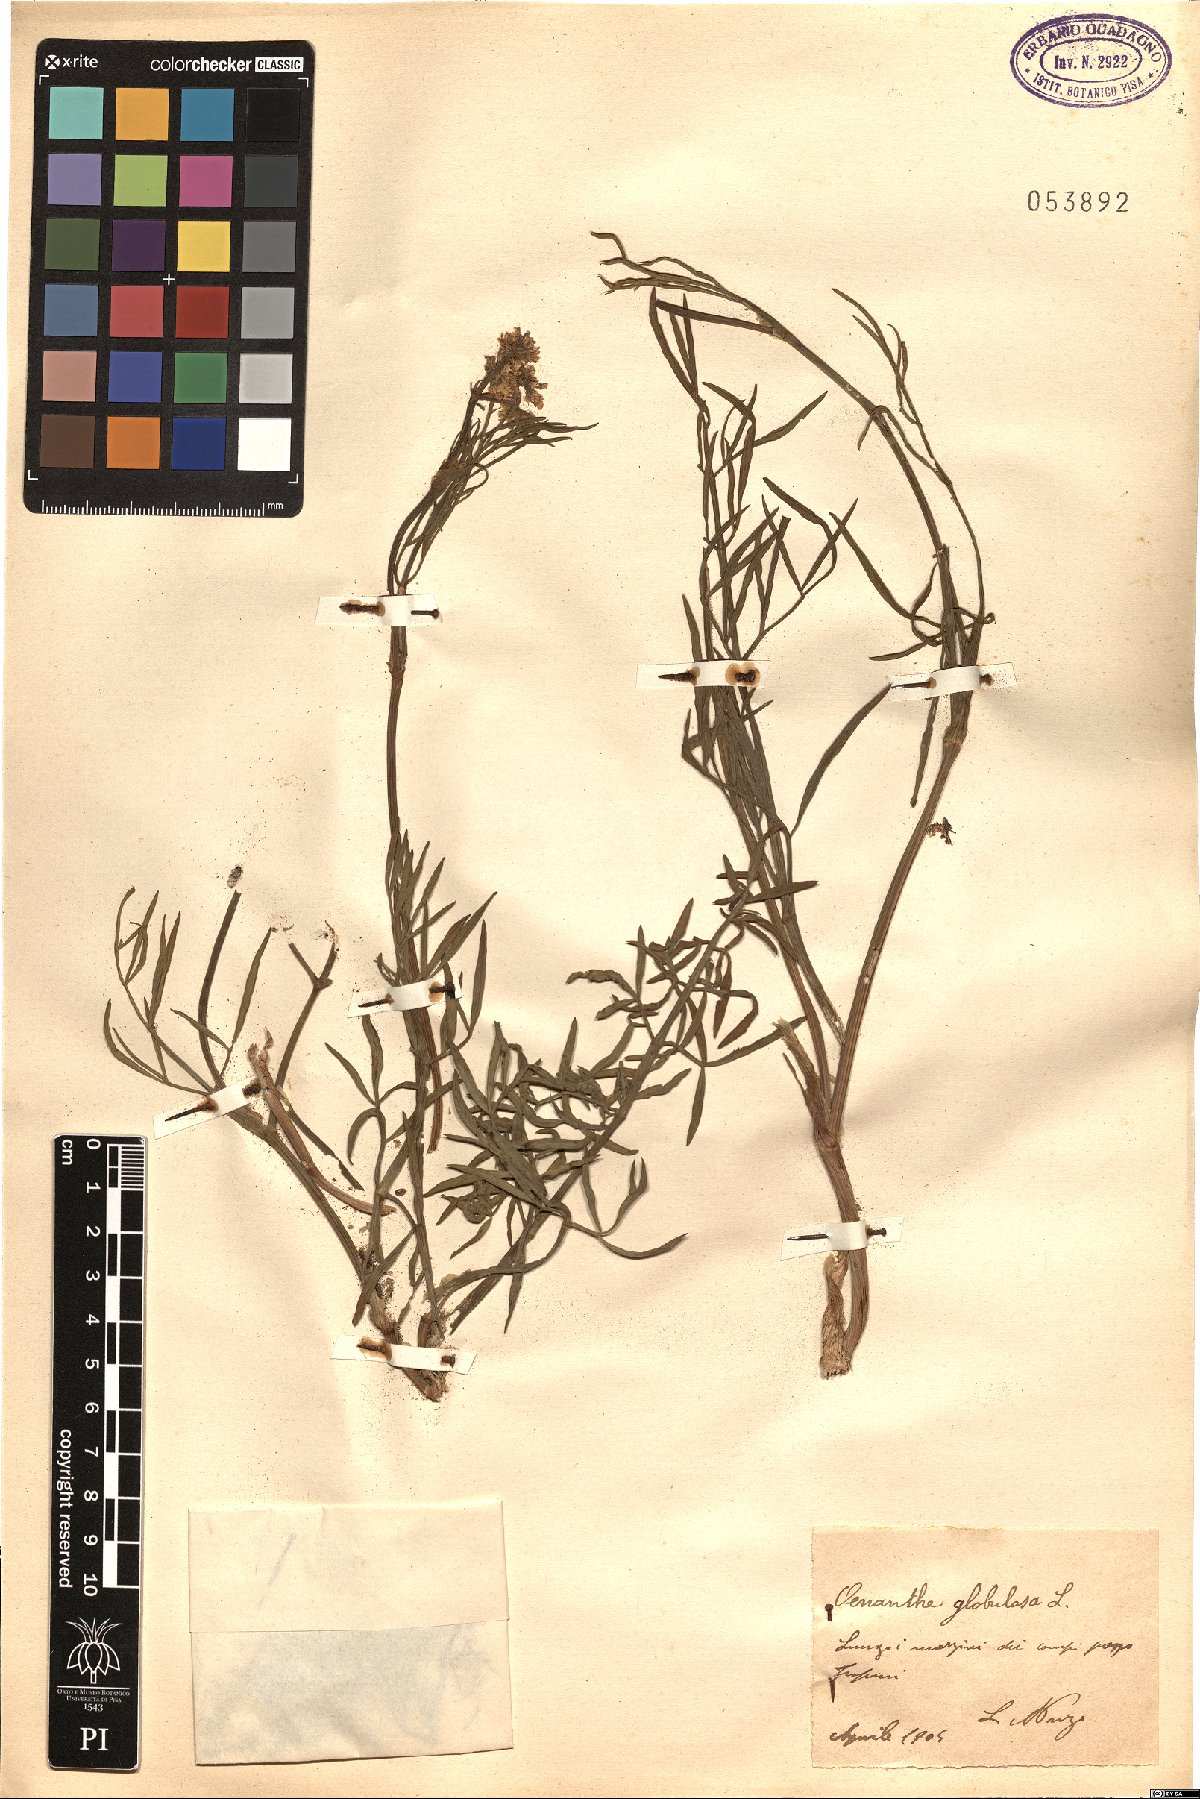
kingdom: Plantae
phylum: Tracheophyta
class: Magnoliopsida
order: Apiales
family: Apiaceae
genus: Oenanthe
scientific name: Oenanthe globulosa
